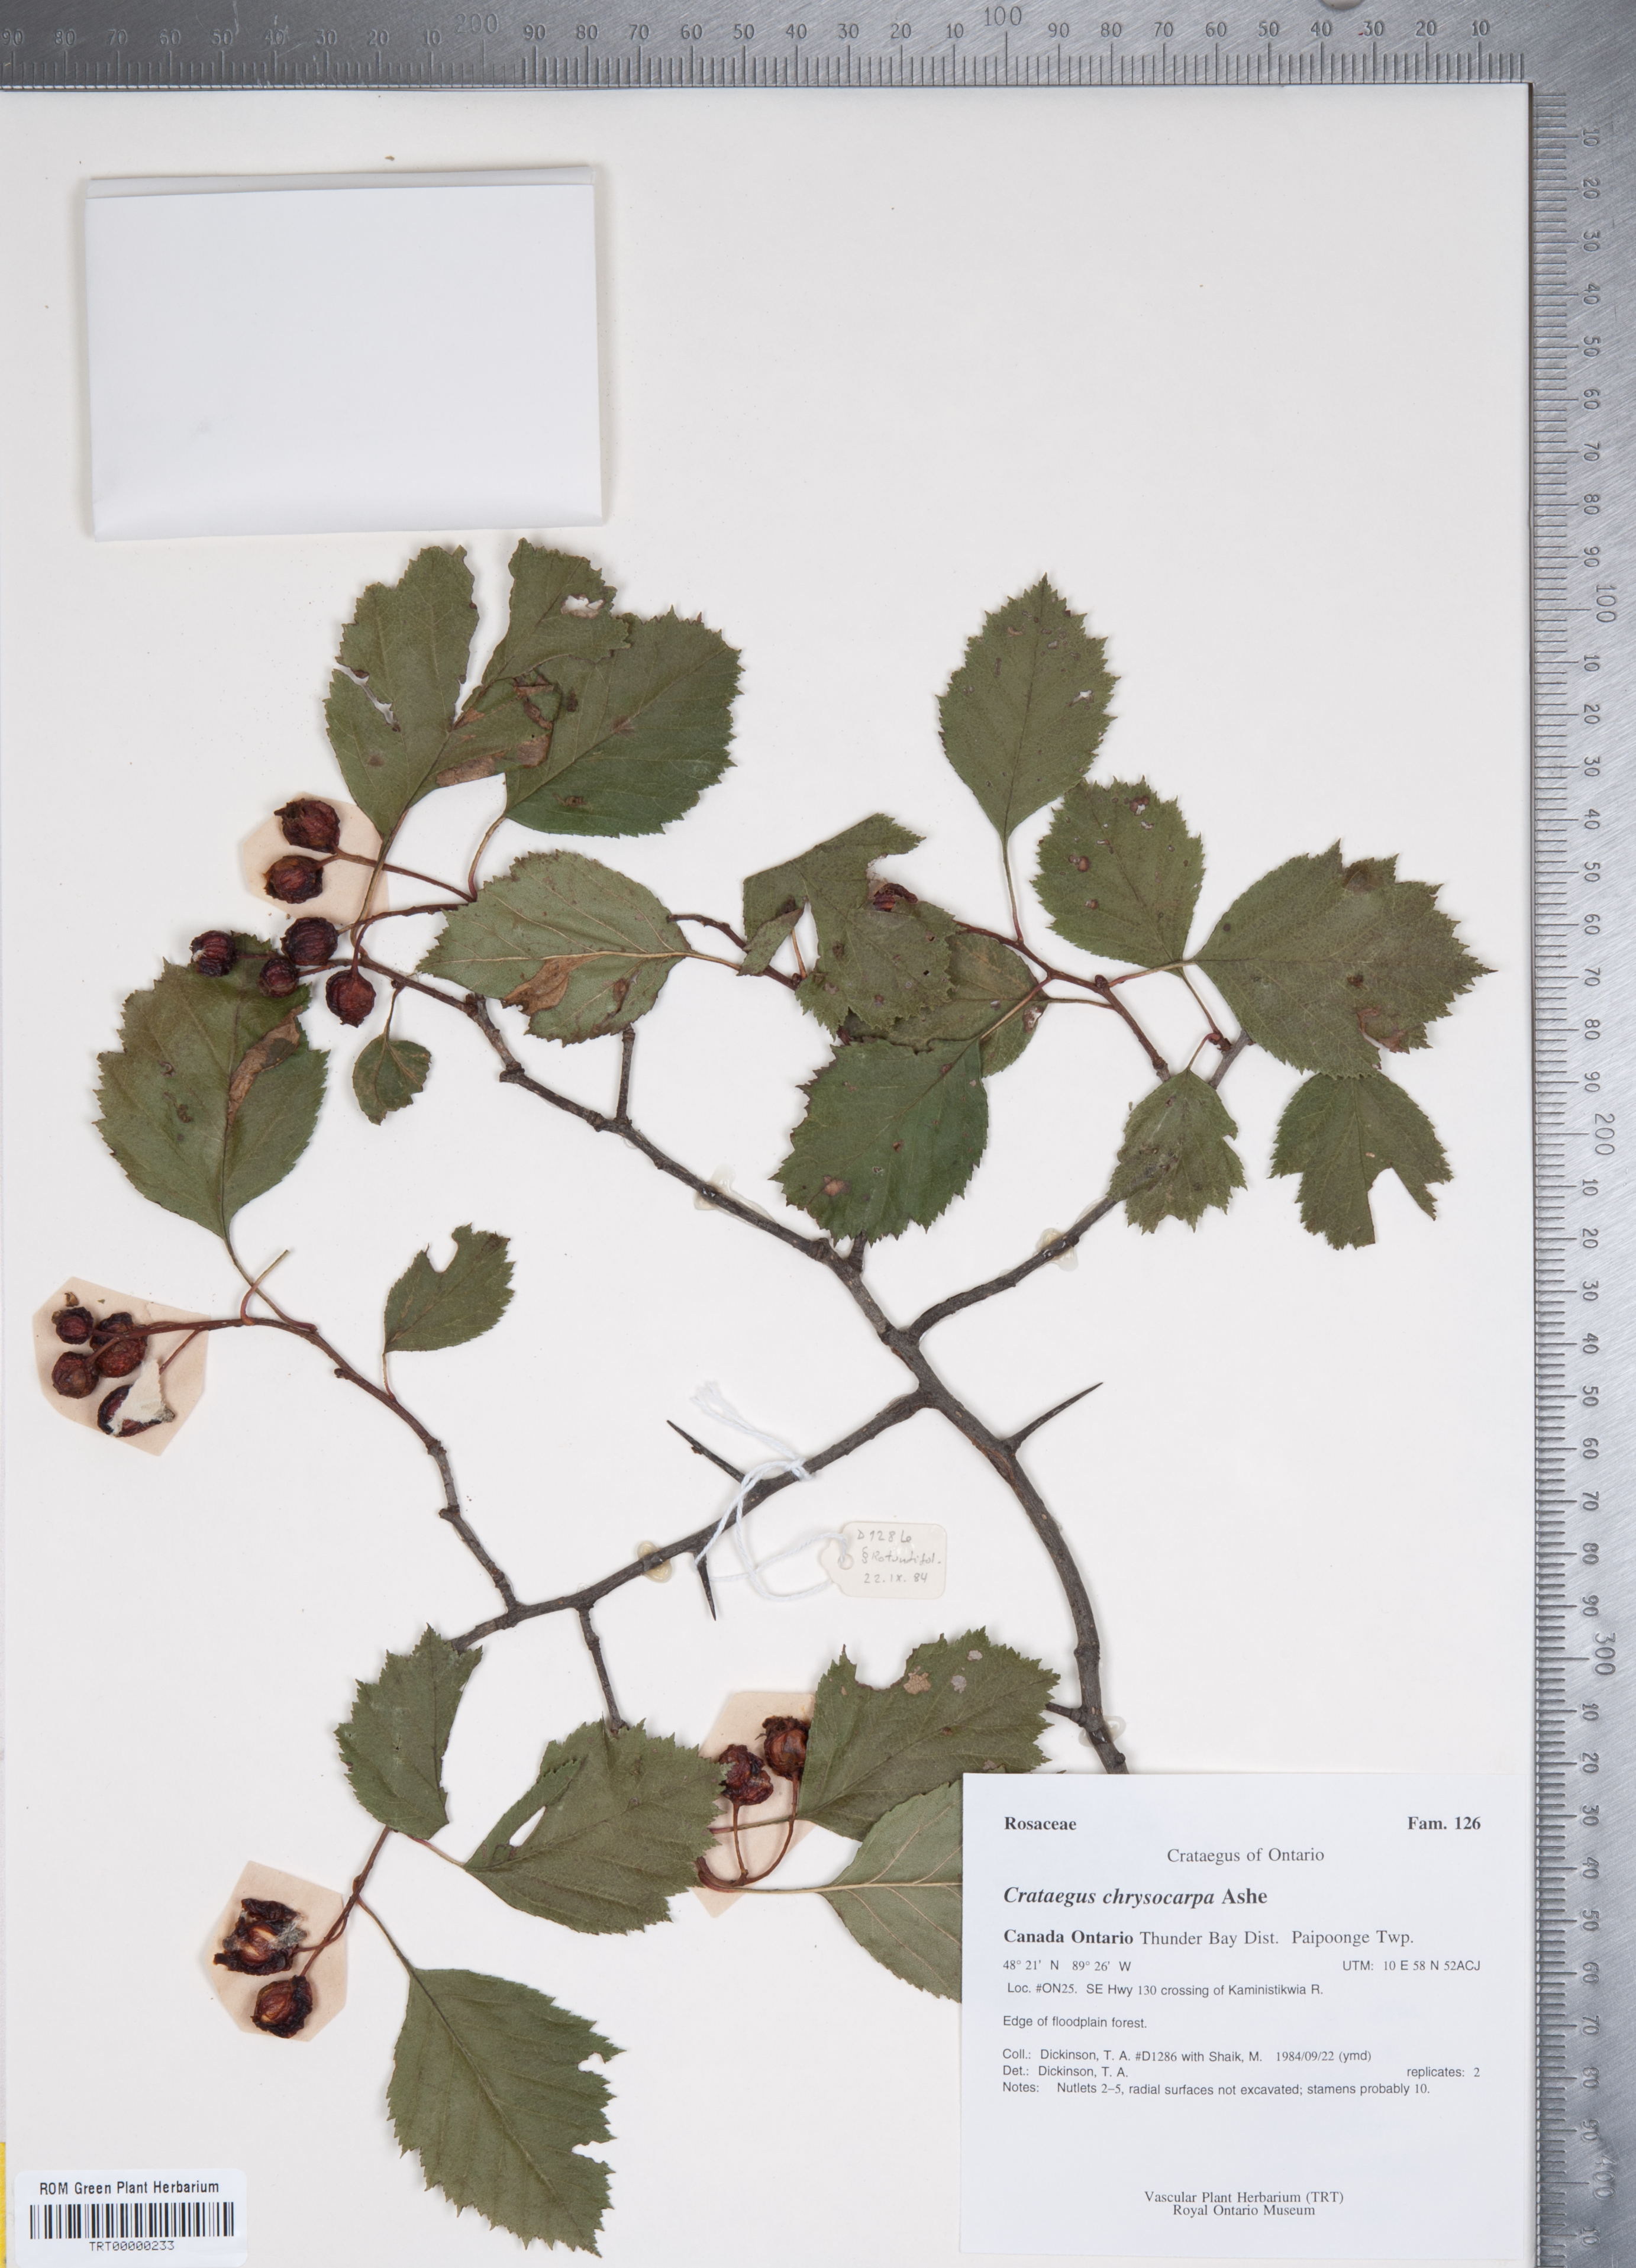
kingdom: Plantae
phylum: Tracheophyta
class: Magnoliopsida
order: Rosales
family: Rosaceae
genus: Crataegus
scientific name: Crataegus chrysocarpa
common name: Fire-berry hawthorn
